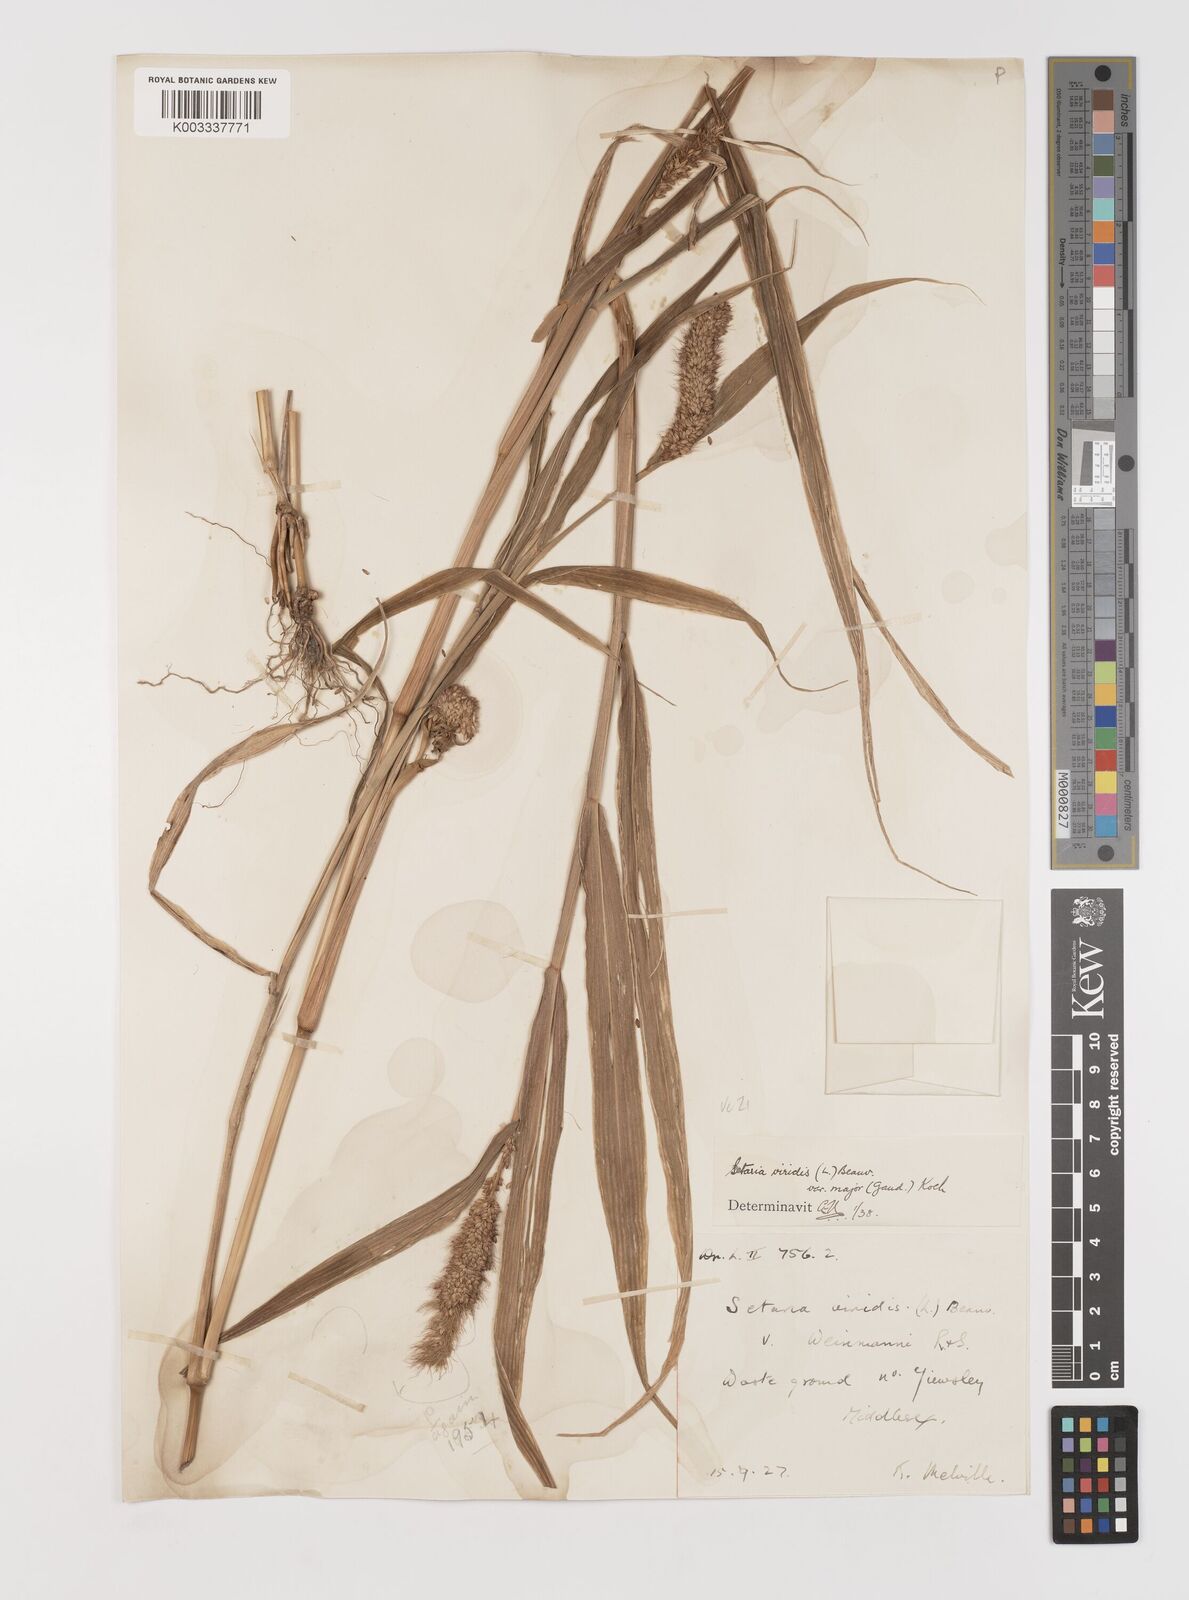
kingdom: Plantae
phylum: Tracheophyta
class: Liliopsida
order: Poales
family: Poaceae
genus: Setaria
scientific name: Setaria viridis
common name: Green bristlegrass
